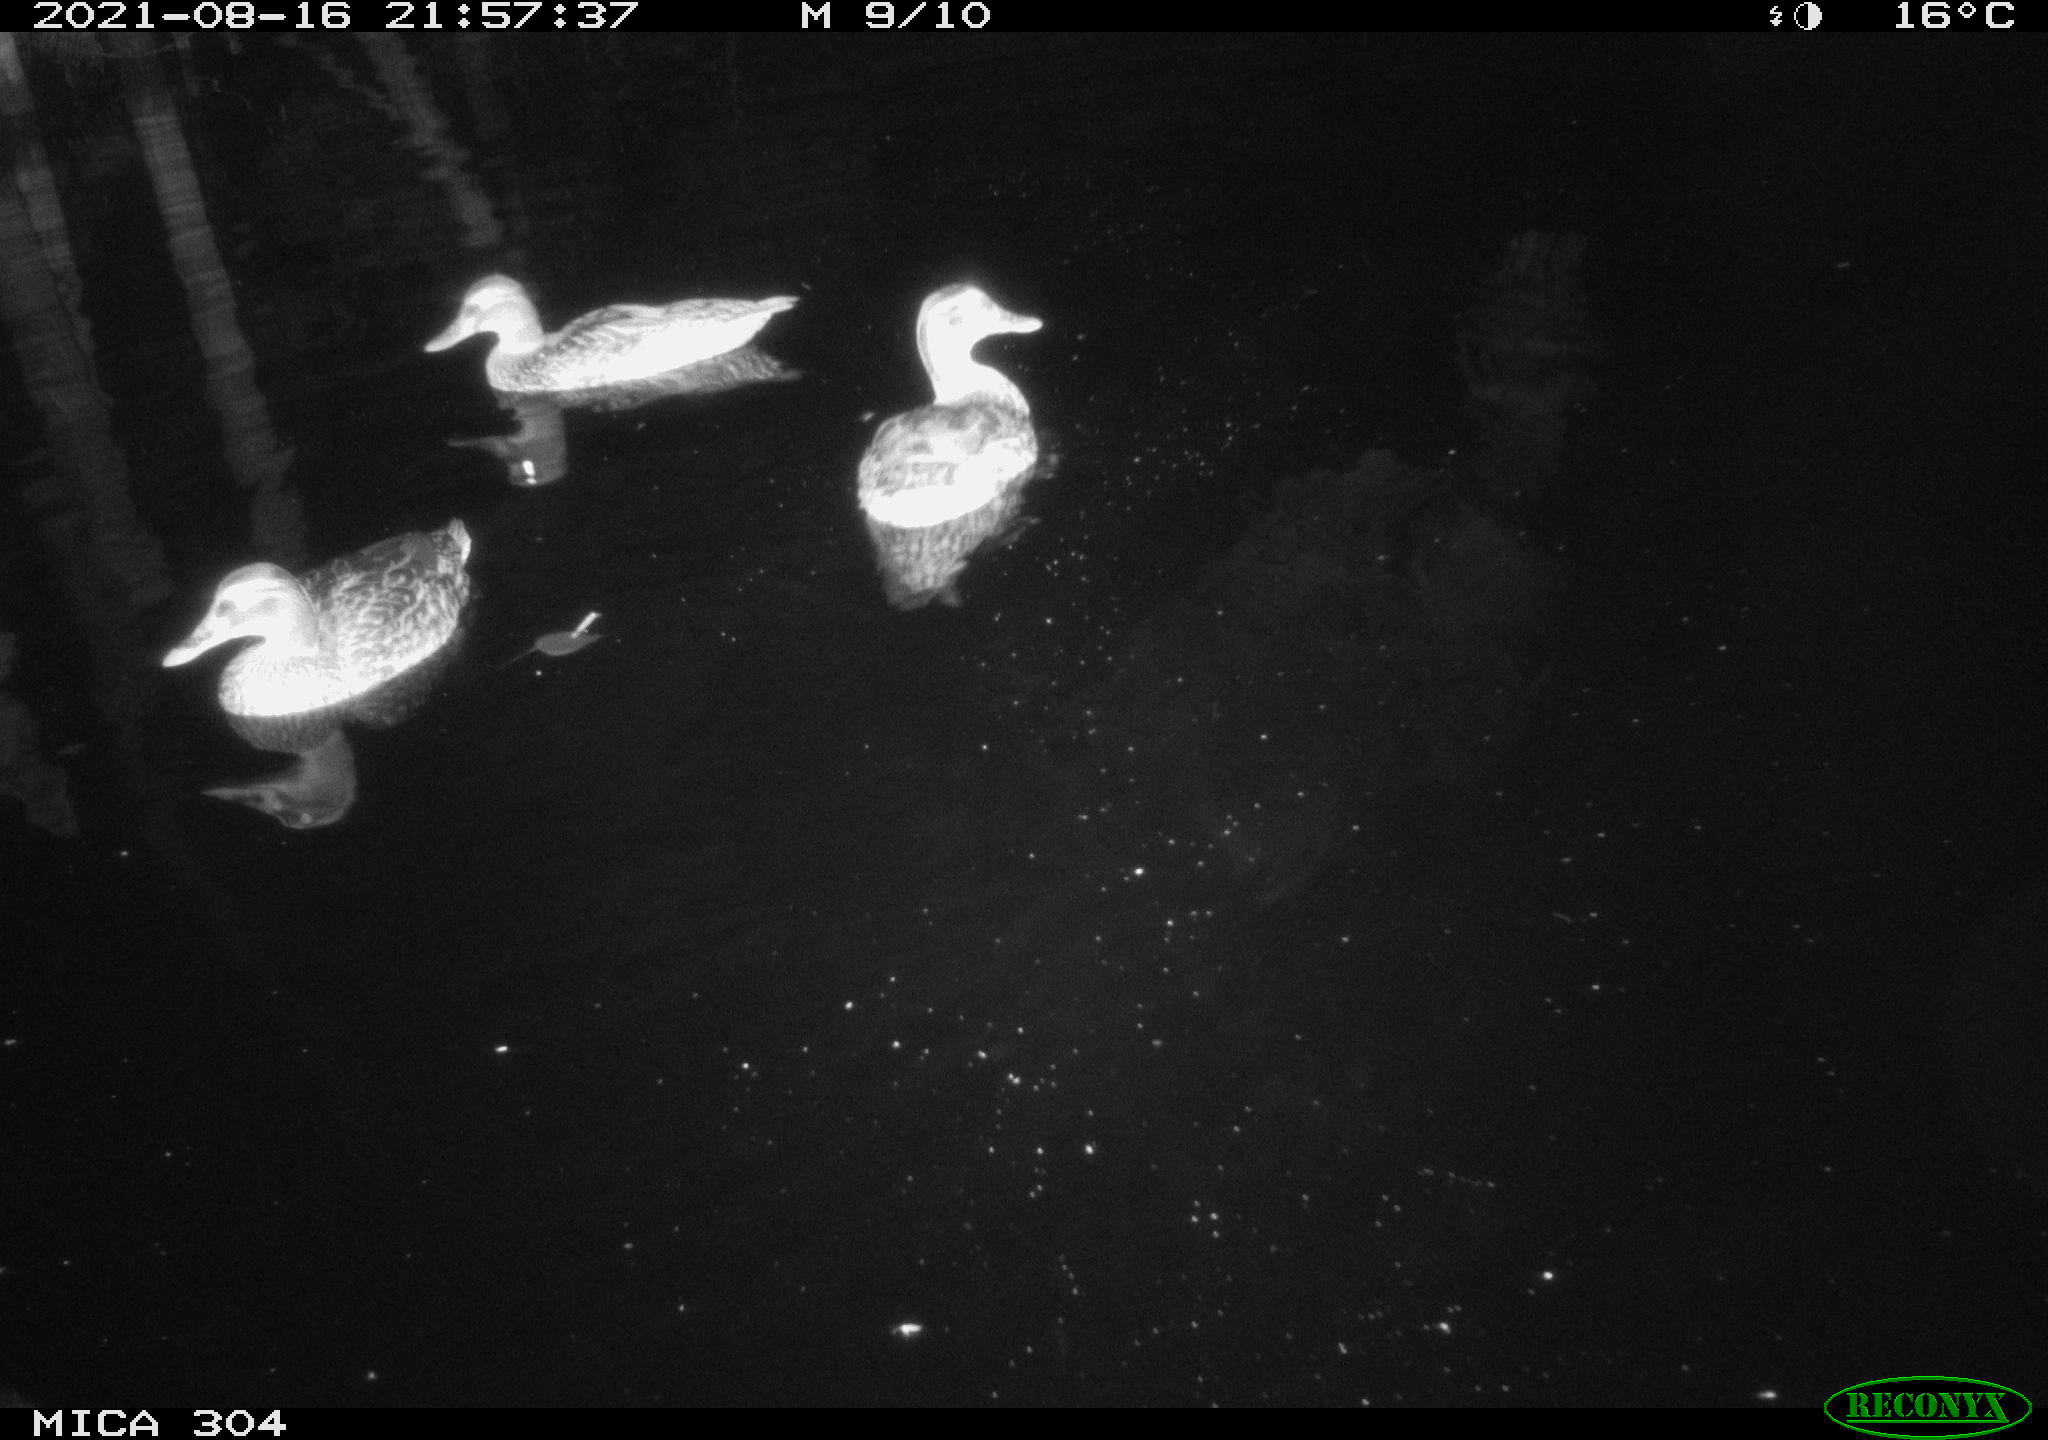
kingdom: Animalia
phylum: Chordata
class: Aves
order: Anseriformes
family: Anatidae
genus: Anas
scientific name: Anas platyrhynchos
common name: Mallard
